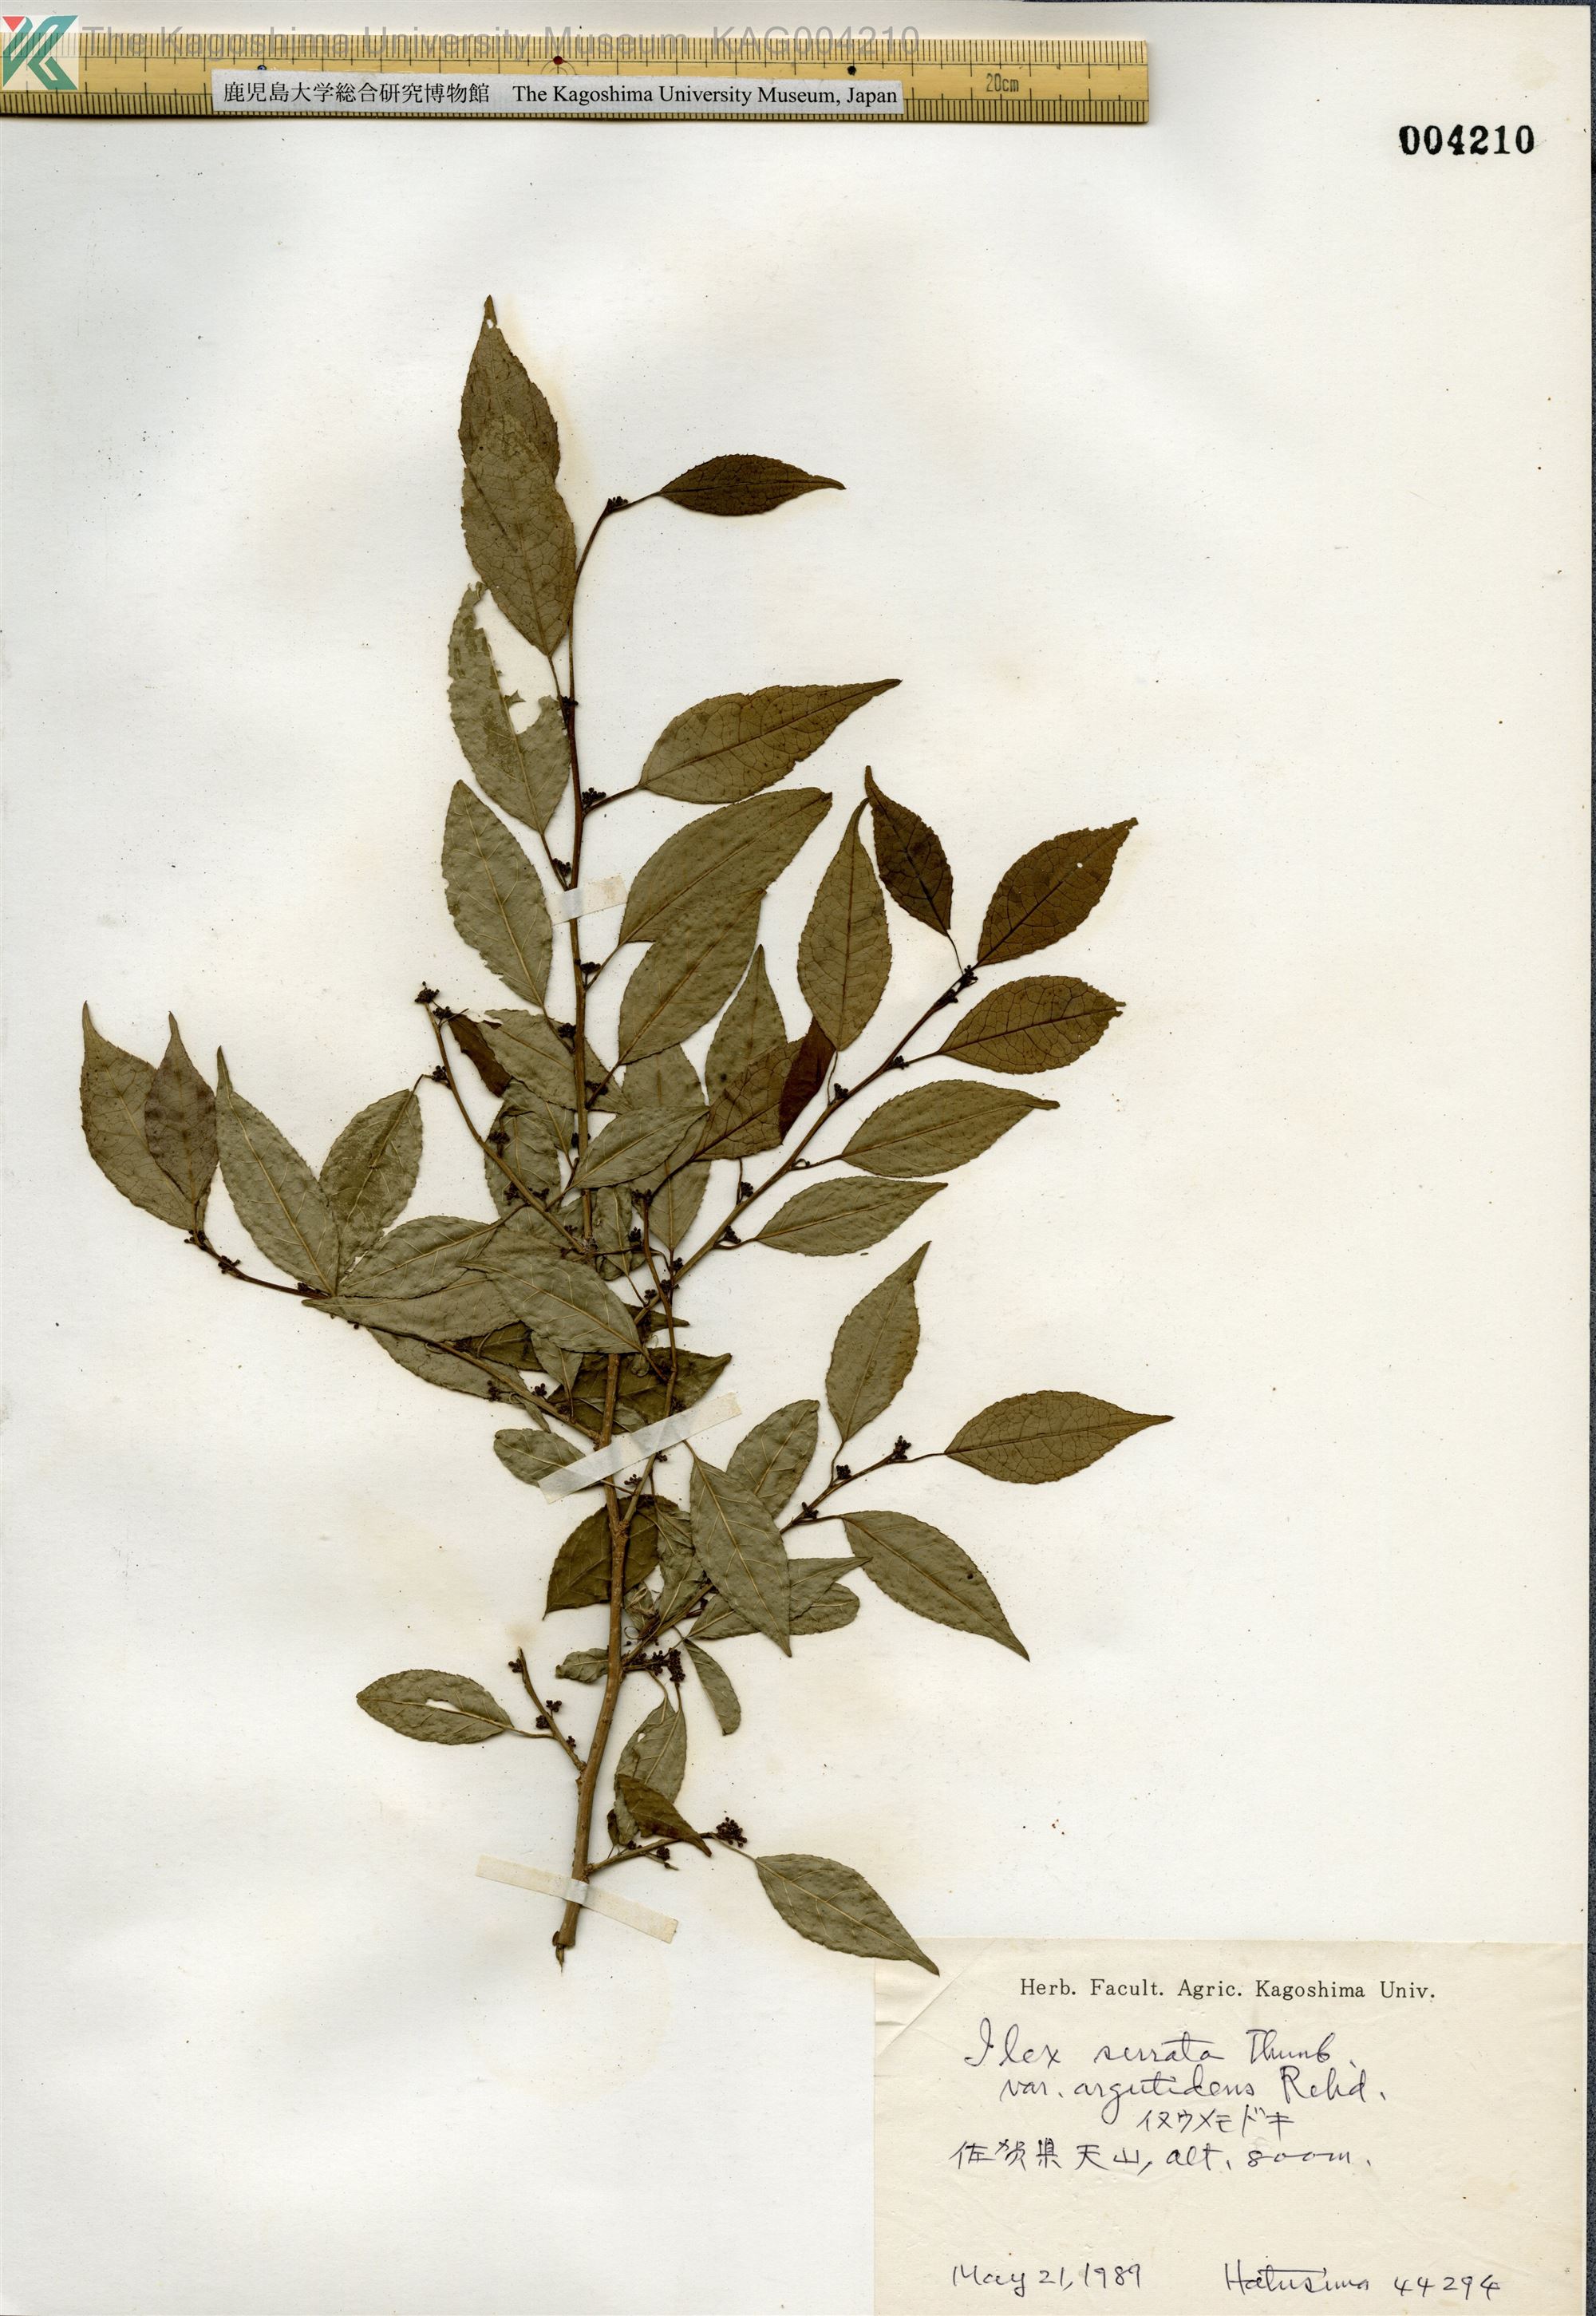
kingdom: Plantae
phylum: Tracheophyta
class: Magnoliopsida
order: Aquifoliales
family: Aquifoliaceae
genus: Ilex
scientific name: Ilex serrata
